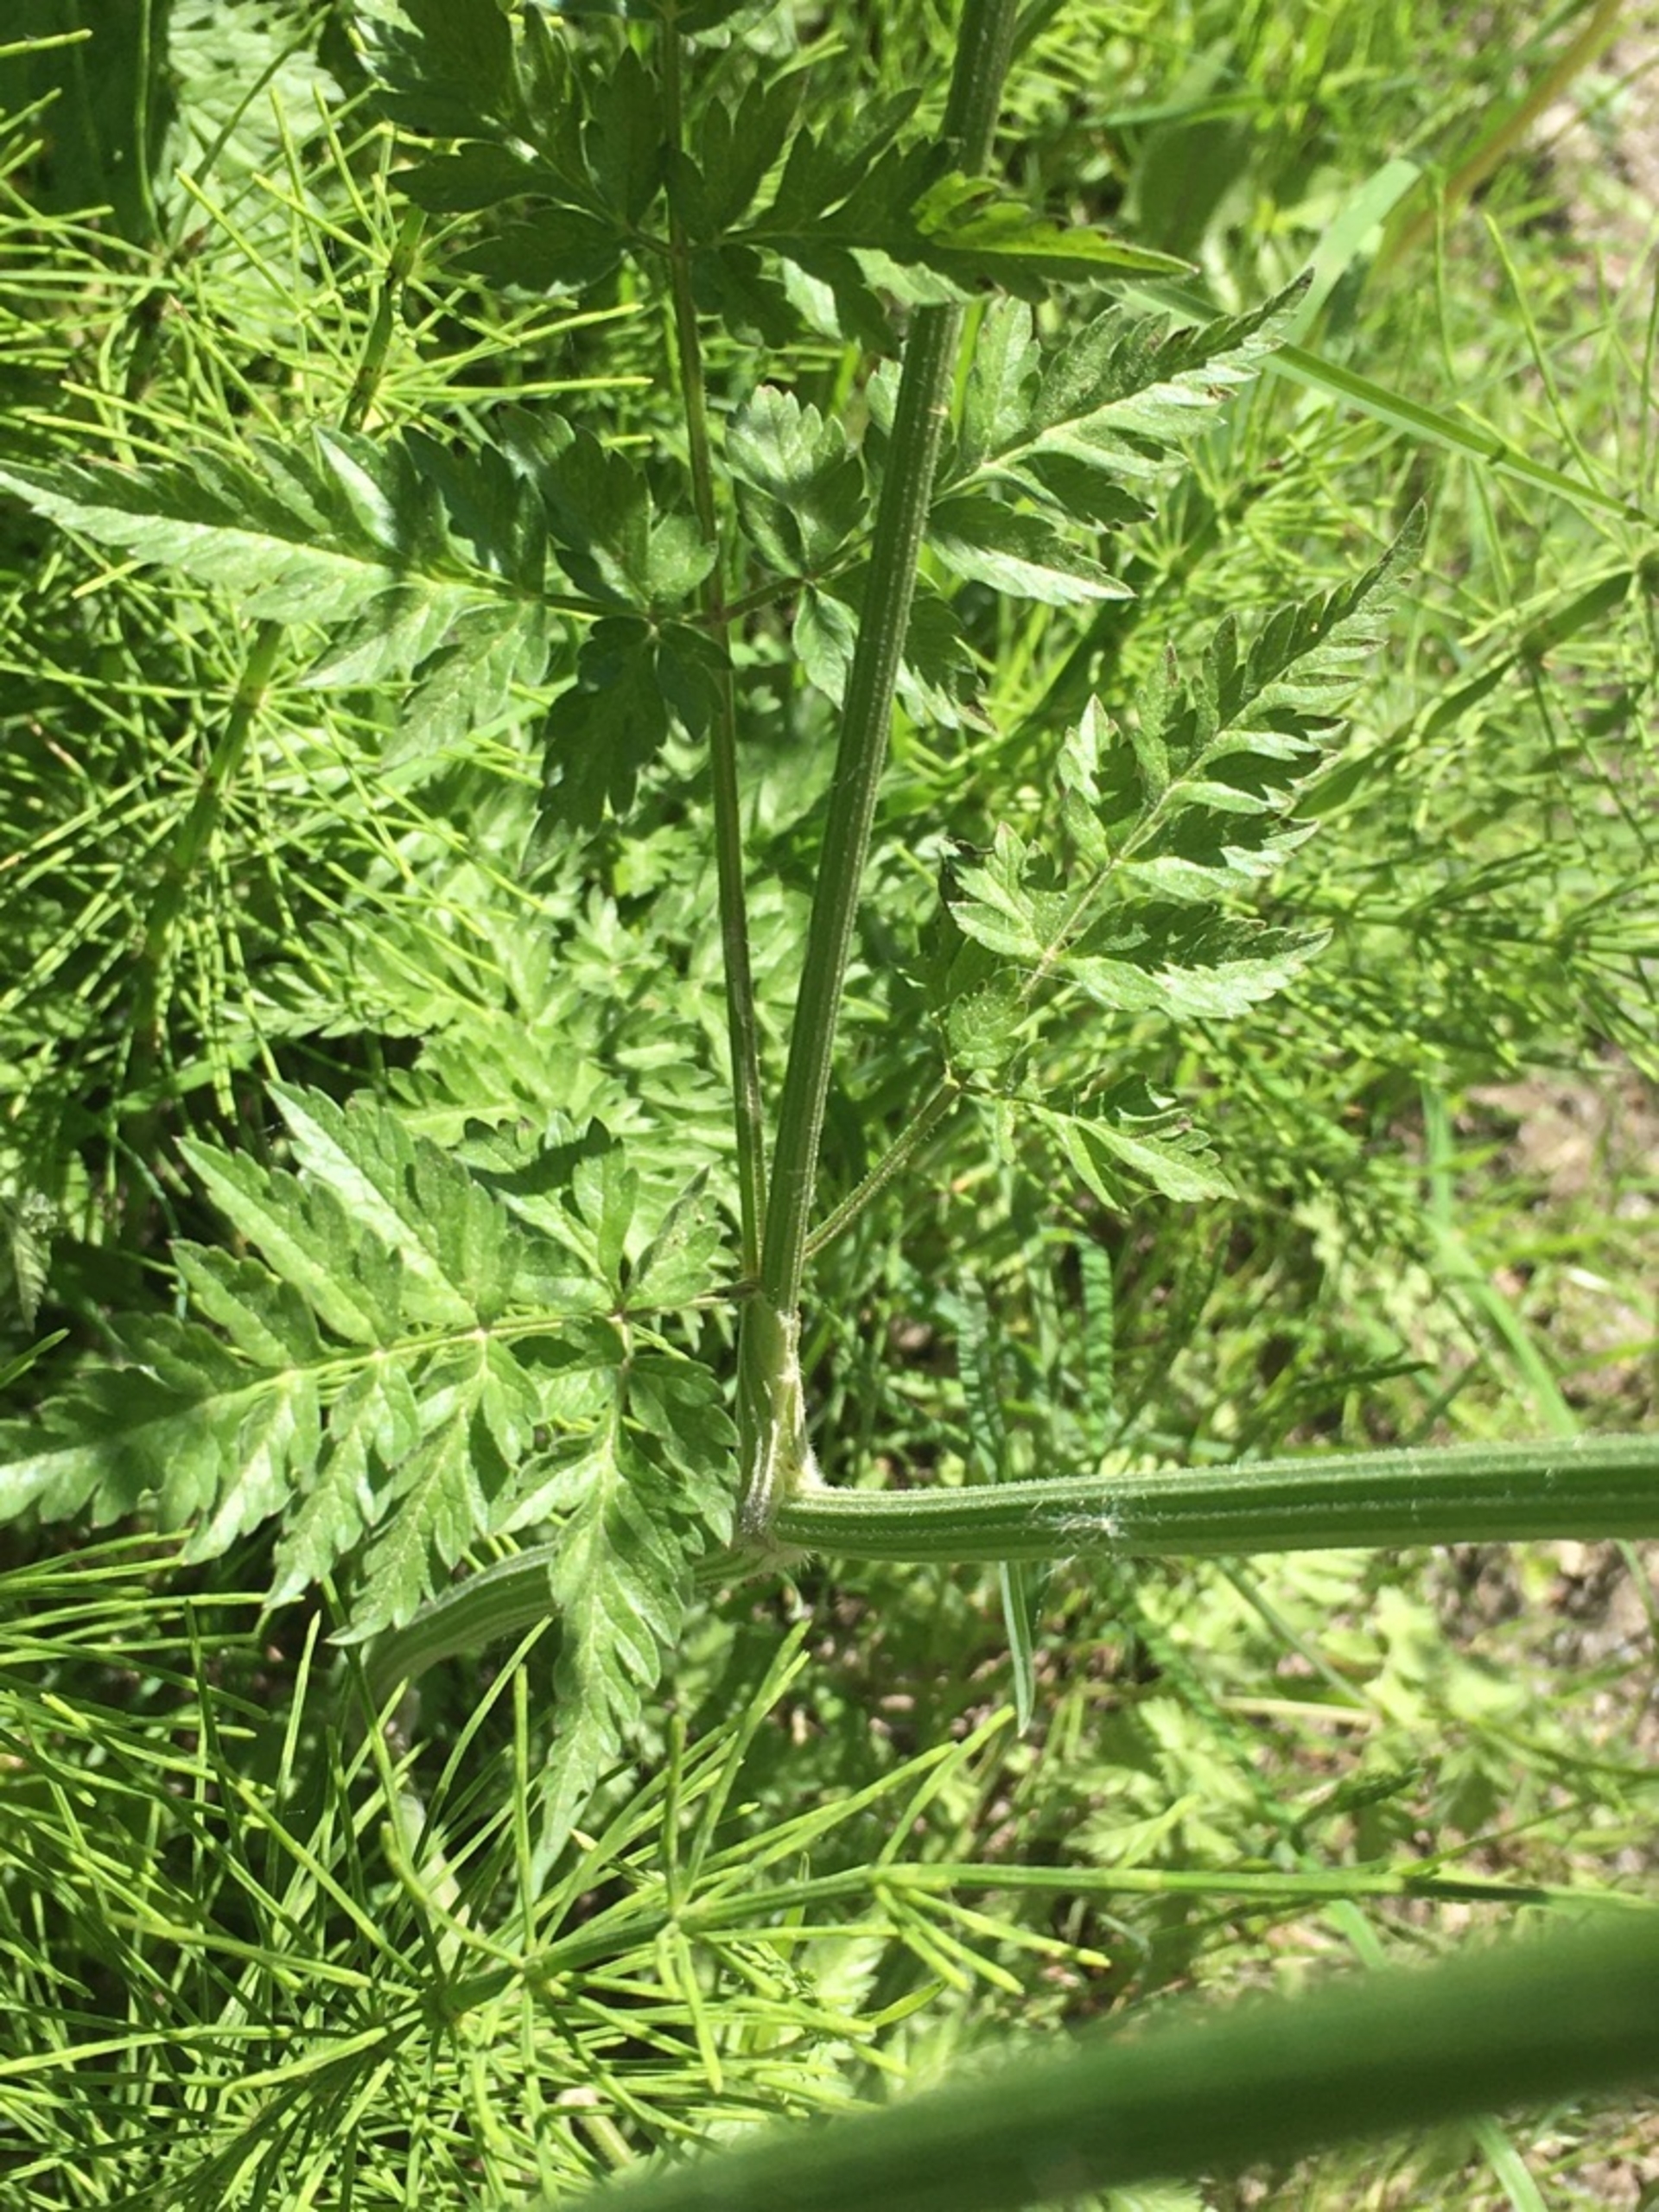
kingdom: Plantae
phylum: Tracheophyta
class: Magnoliopsida
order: Apiales
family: Apiaceae
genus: Anthriscus
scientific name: Anthriscus sylvestris
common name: Vild kørvel
